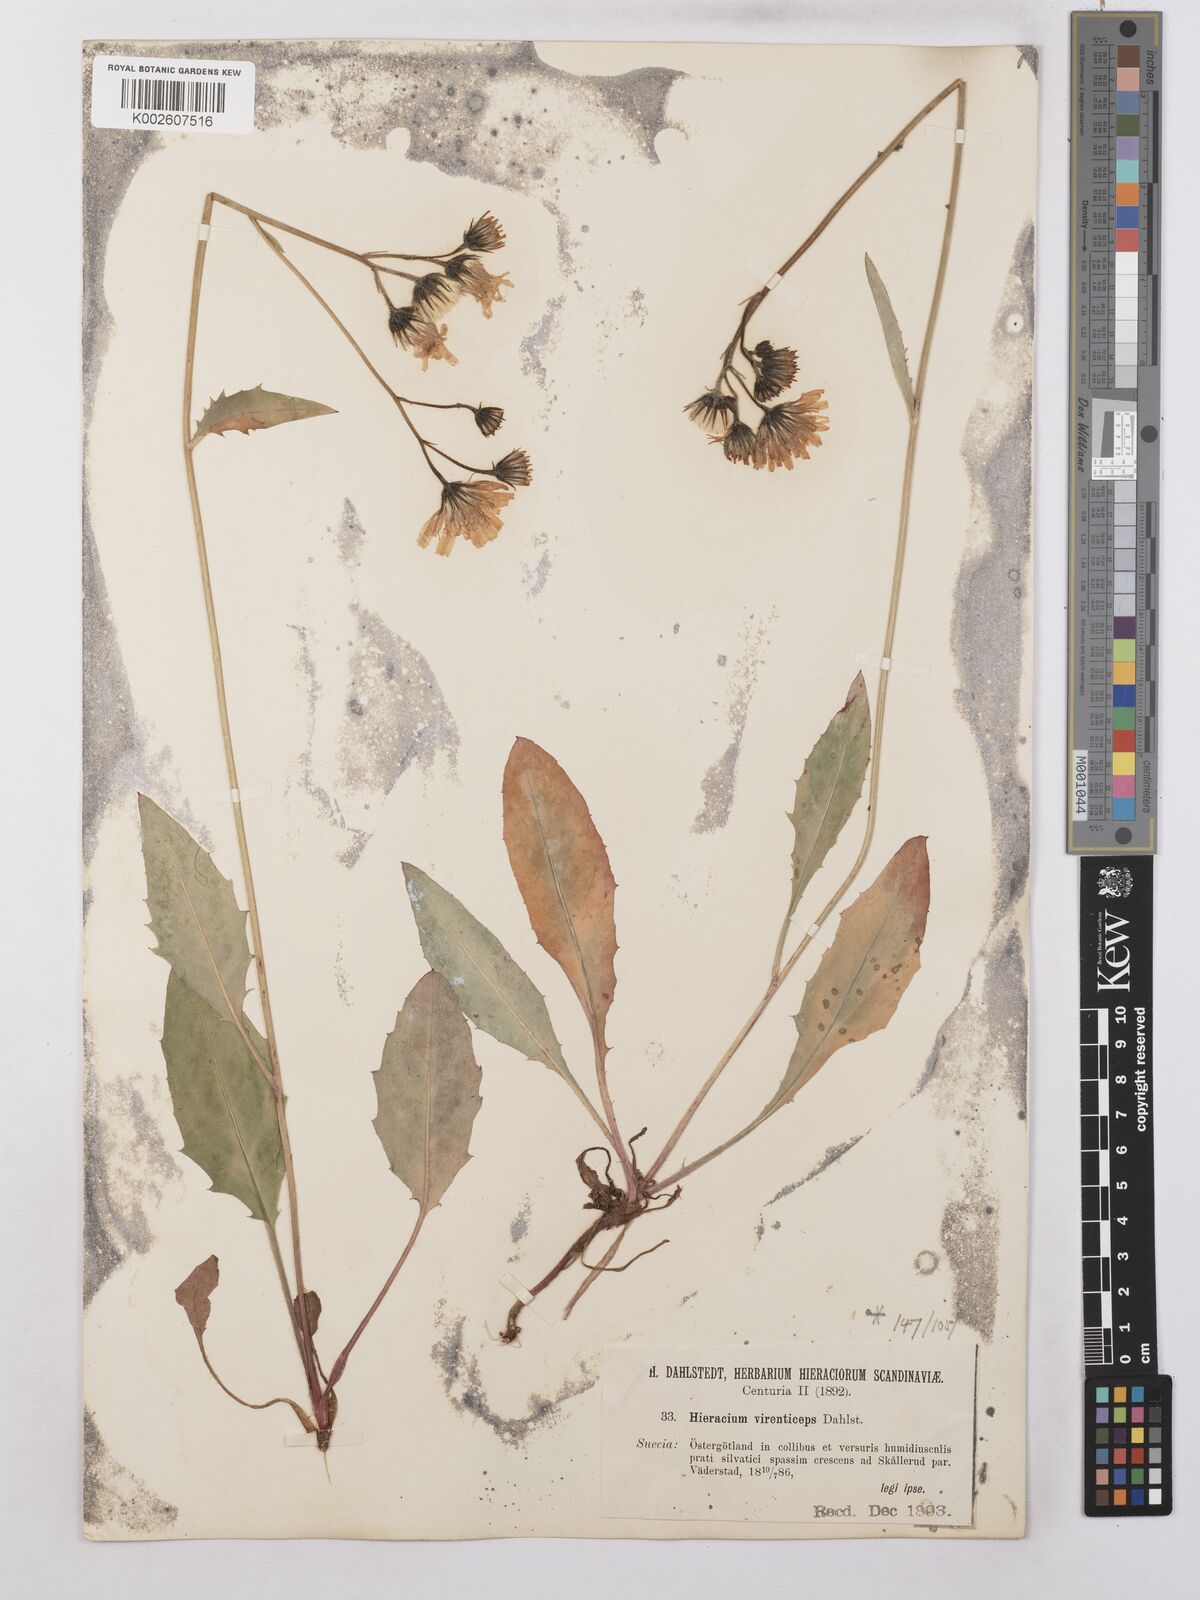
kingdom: Plantae
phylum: Tracheophyta
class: Magnoliopsida
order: Asterales
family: Asteraceae
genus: Hieracium
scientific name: Hieracium caesium
